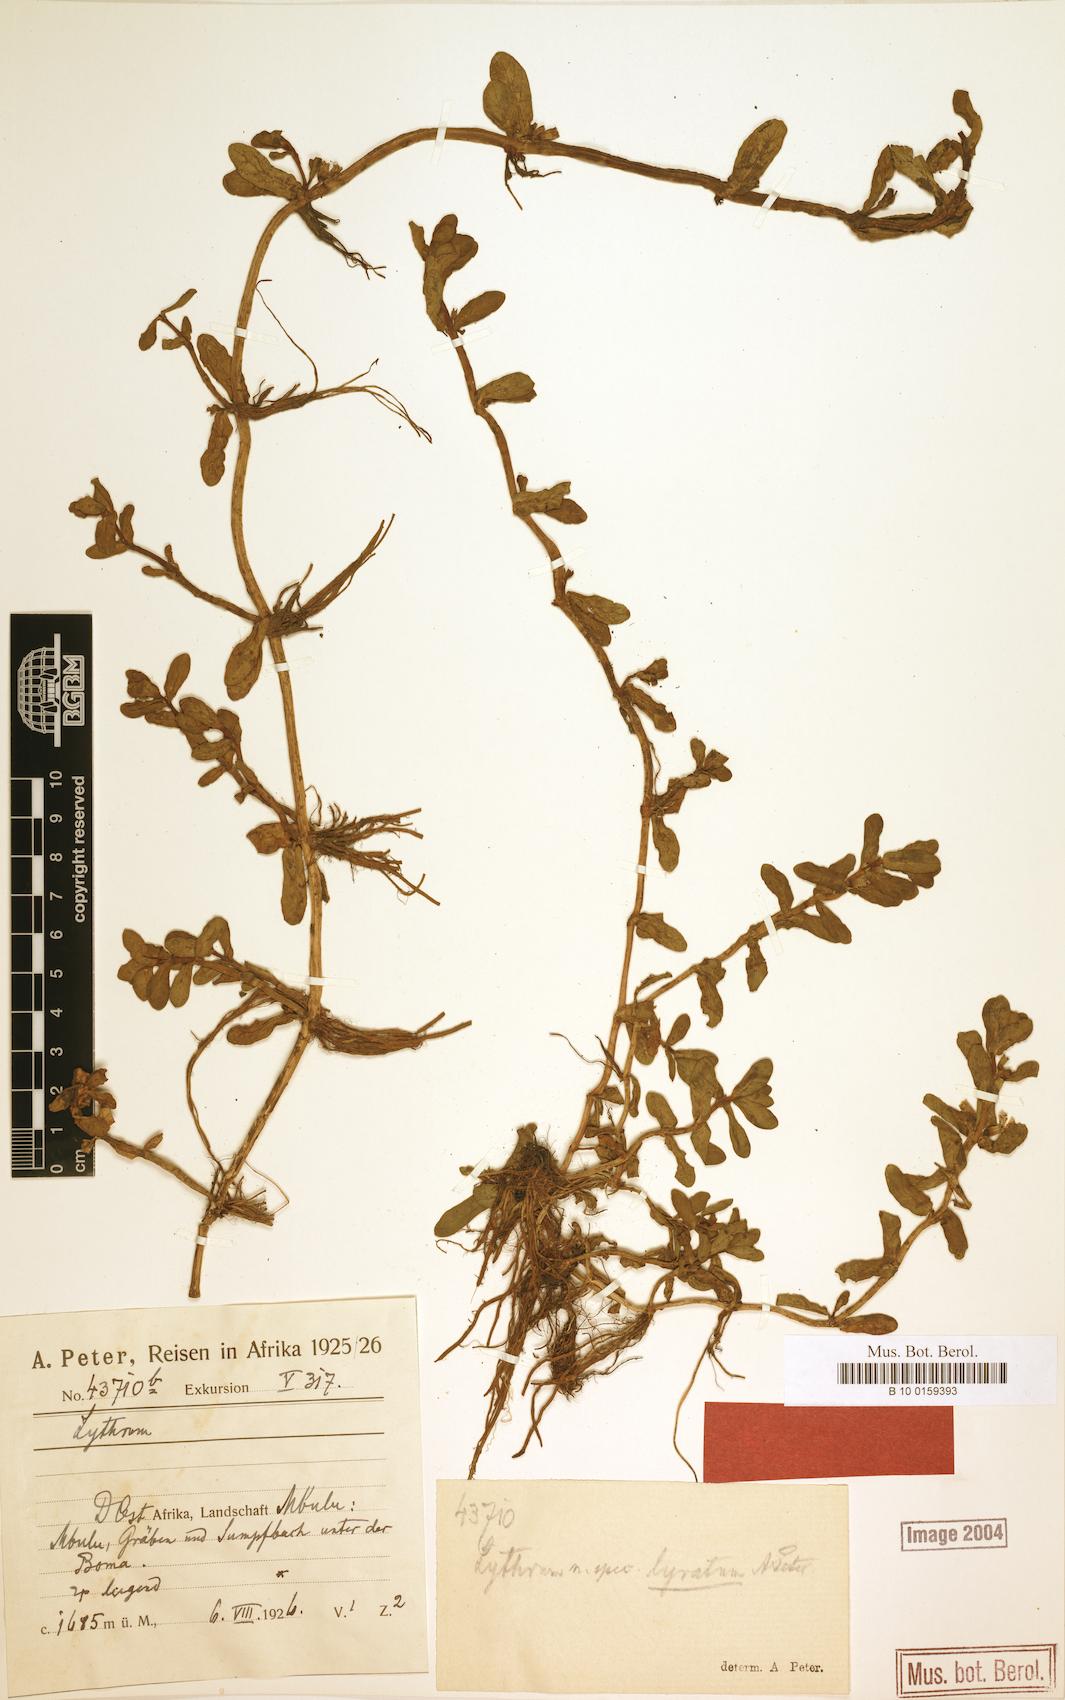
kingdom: Plantae
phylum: Tracheophyta
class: Magnoliopsida
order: Myrtales
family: Lythraceae
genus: Lythrum
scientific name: Lythrum rotundifolium
